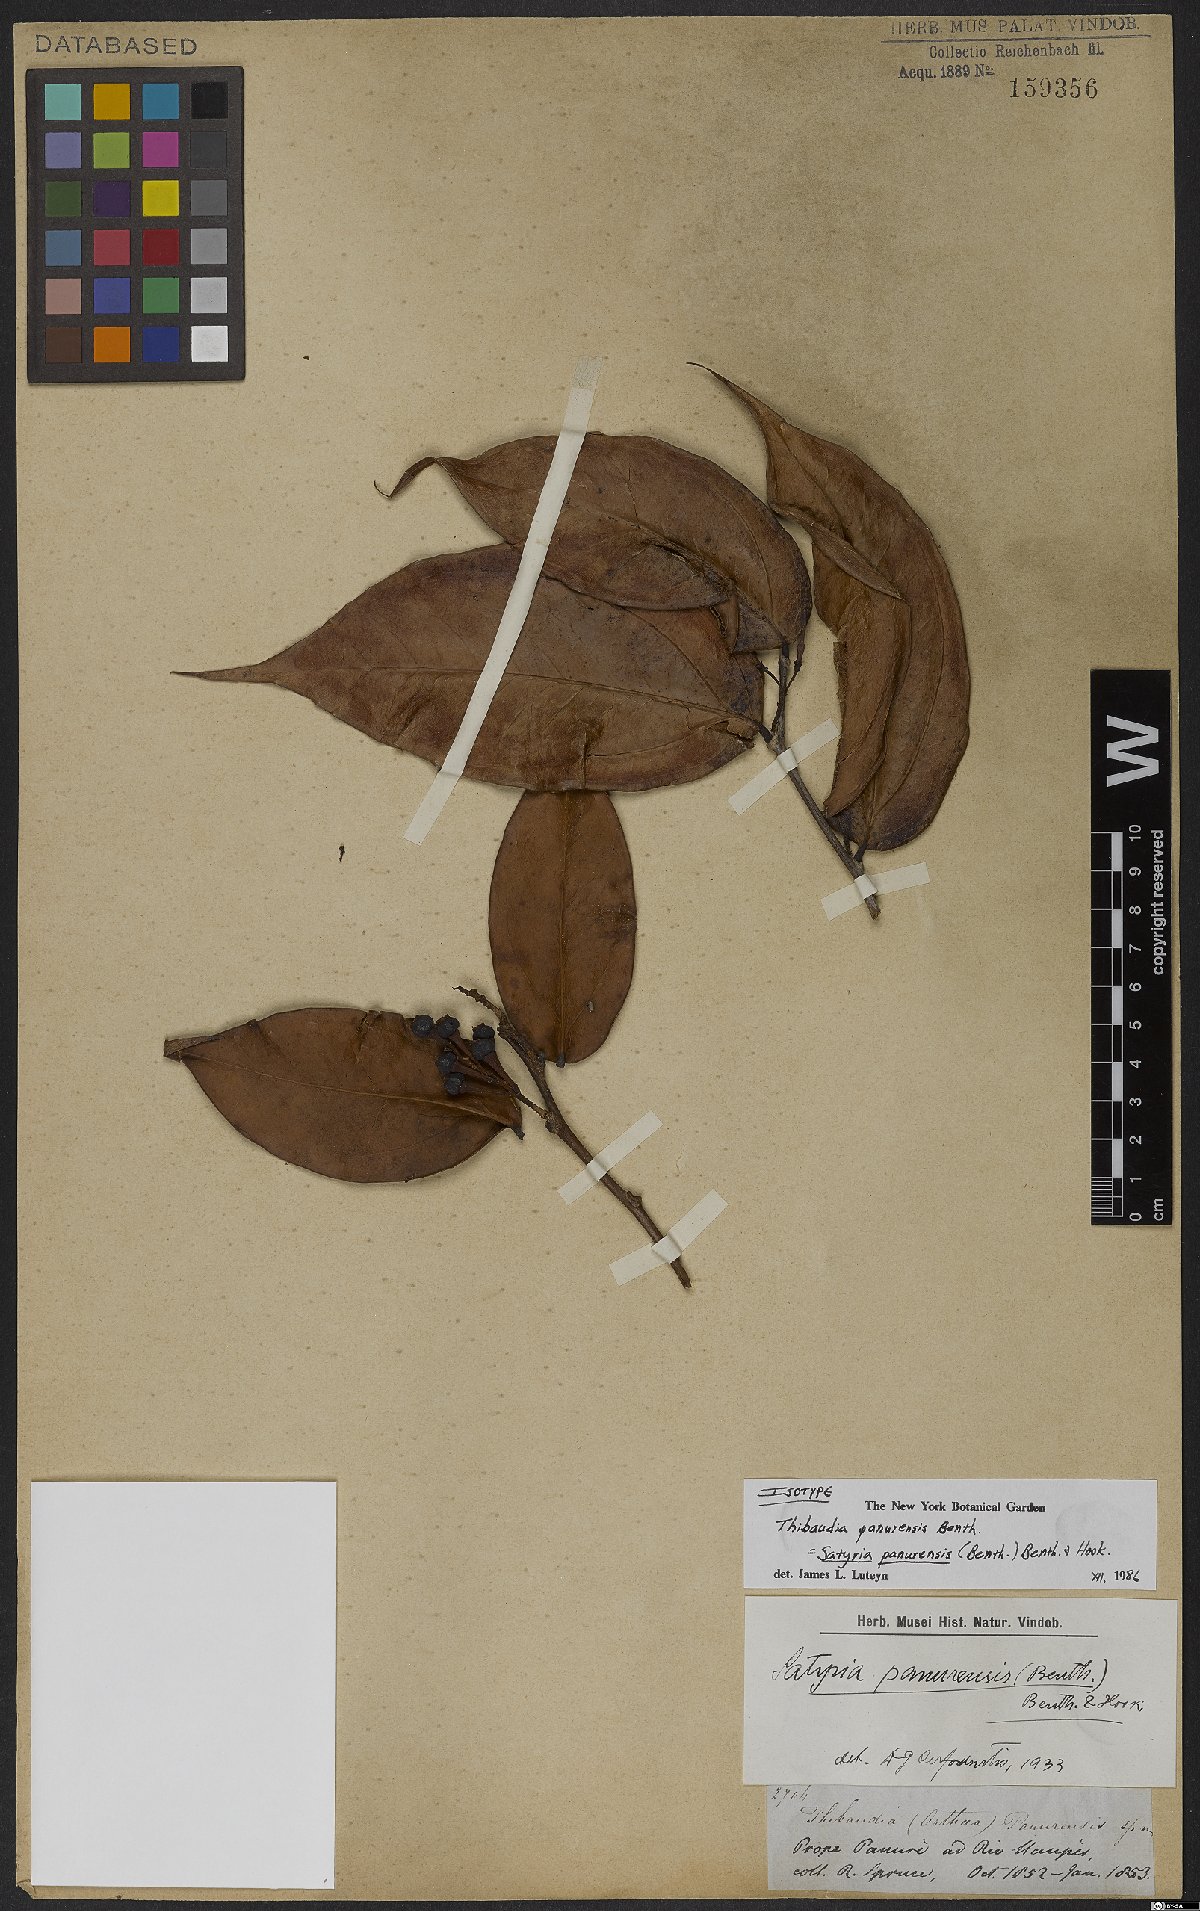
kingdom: Plantae
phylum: Tracheophyta
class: Magnoliopsida
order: Ericales
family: Ericaceae
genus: Satyria
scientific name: Satyria panurensis
